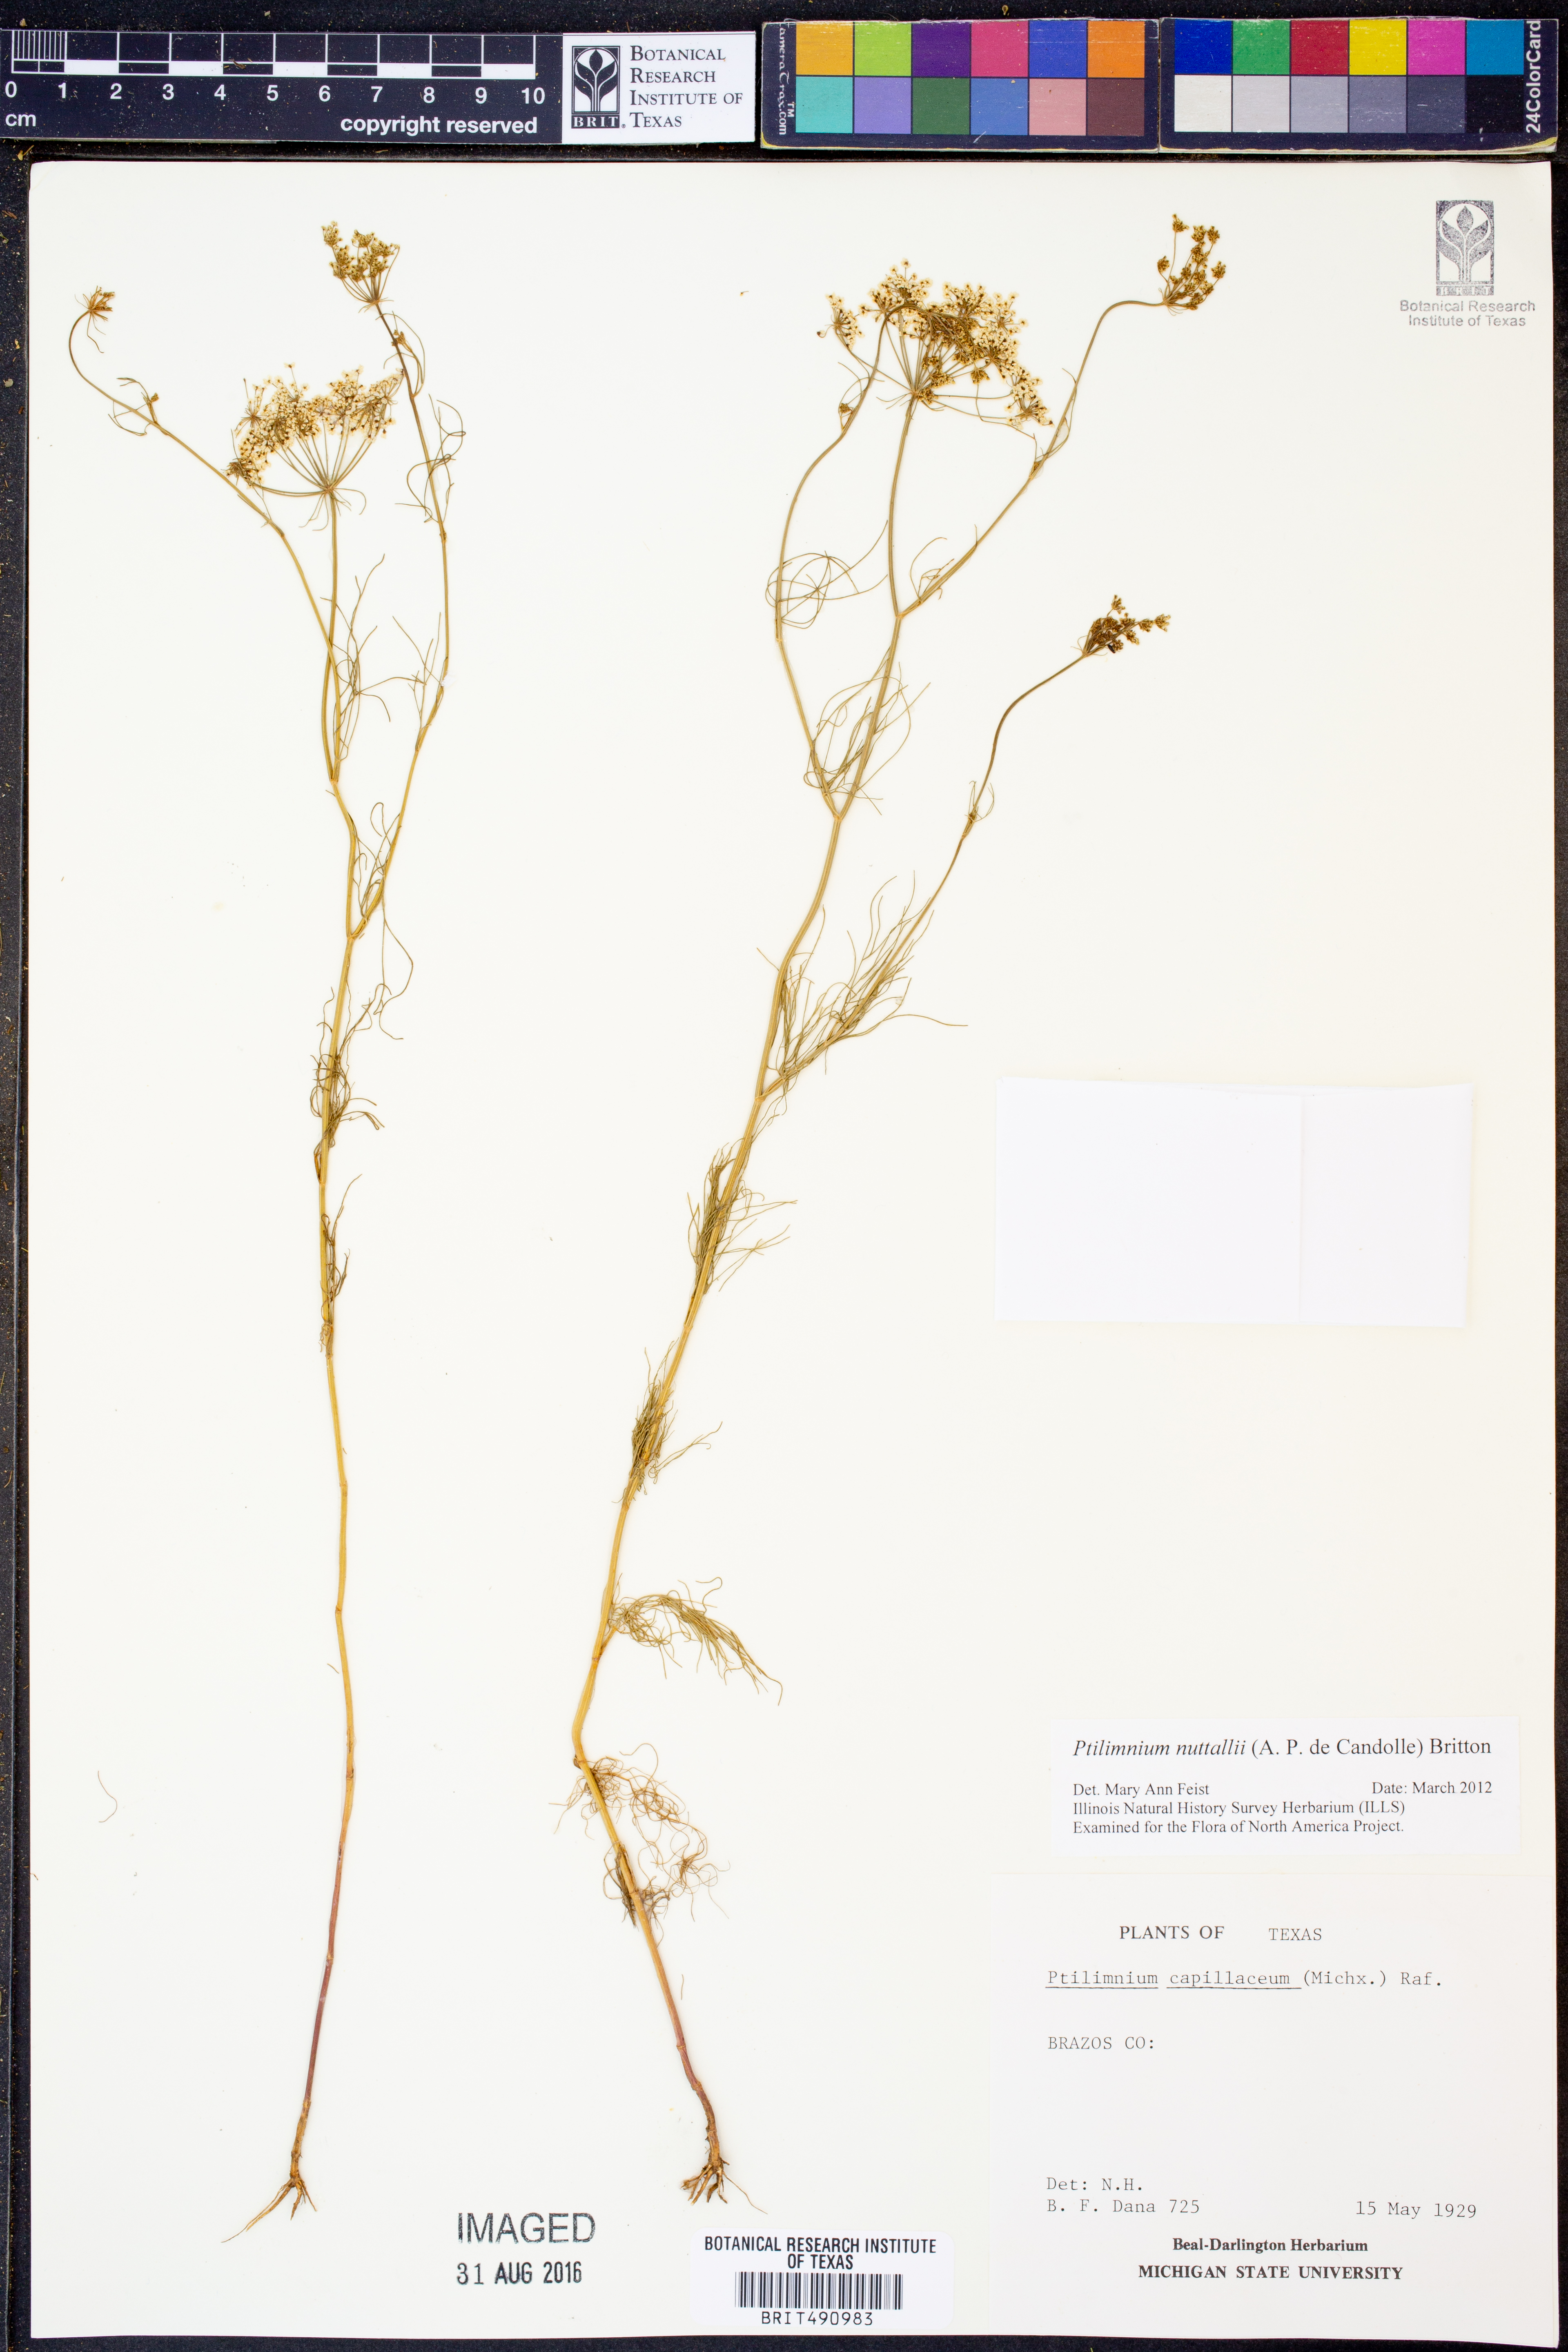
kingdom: Plantae
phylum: Tracheophyta
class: Magnoliopsida
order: Apiales
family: Apiaceae
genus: Ptilimnium
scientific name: Ptilimnium nuttallii
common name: Ozark bishop's-weed
